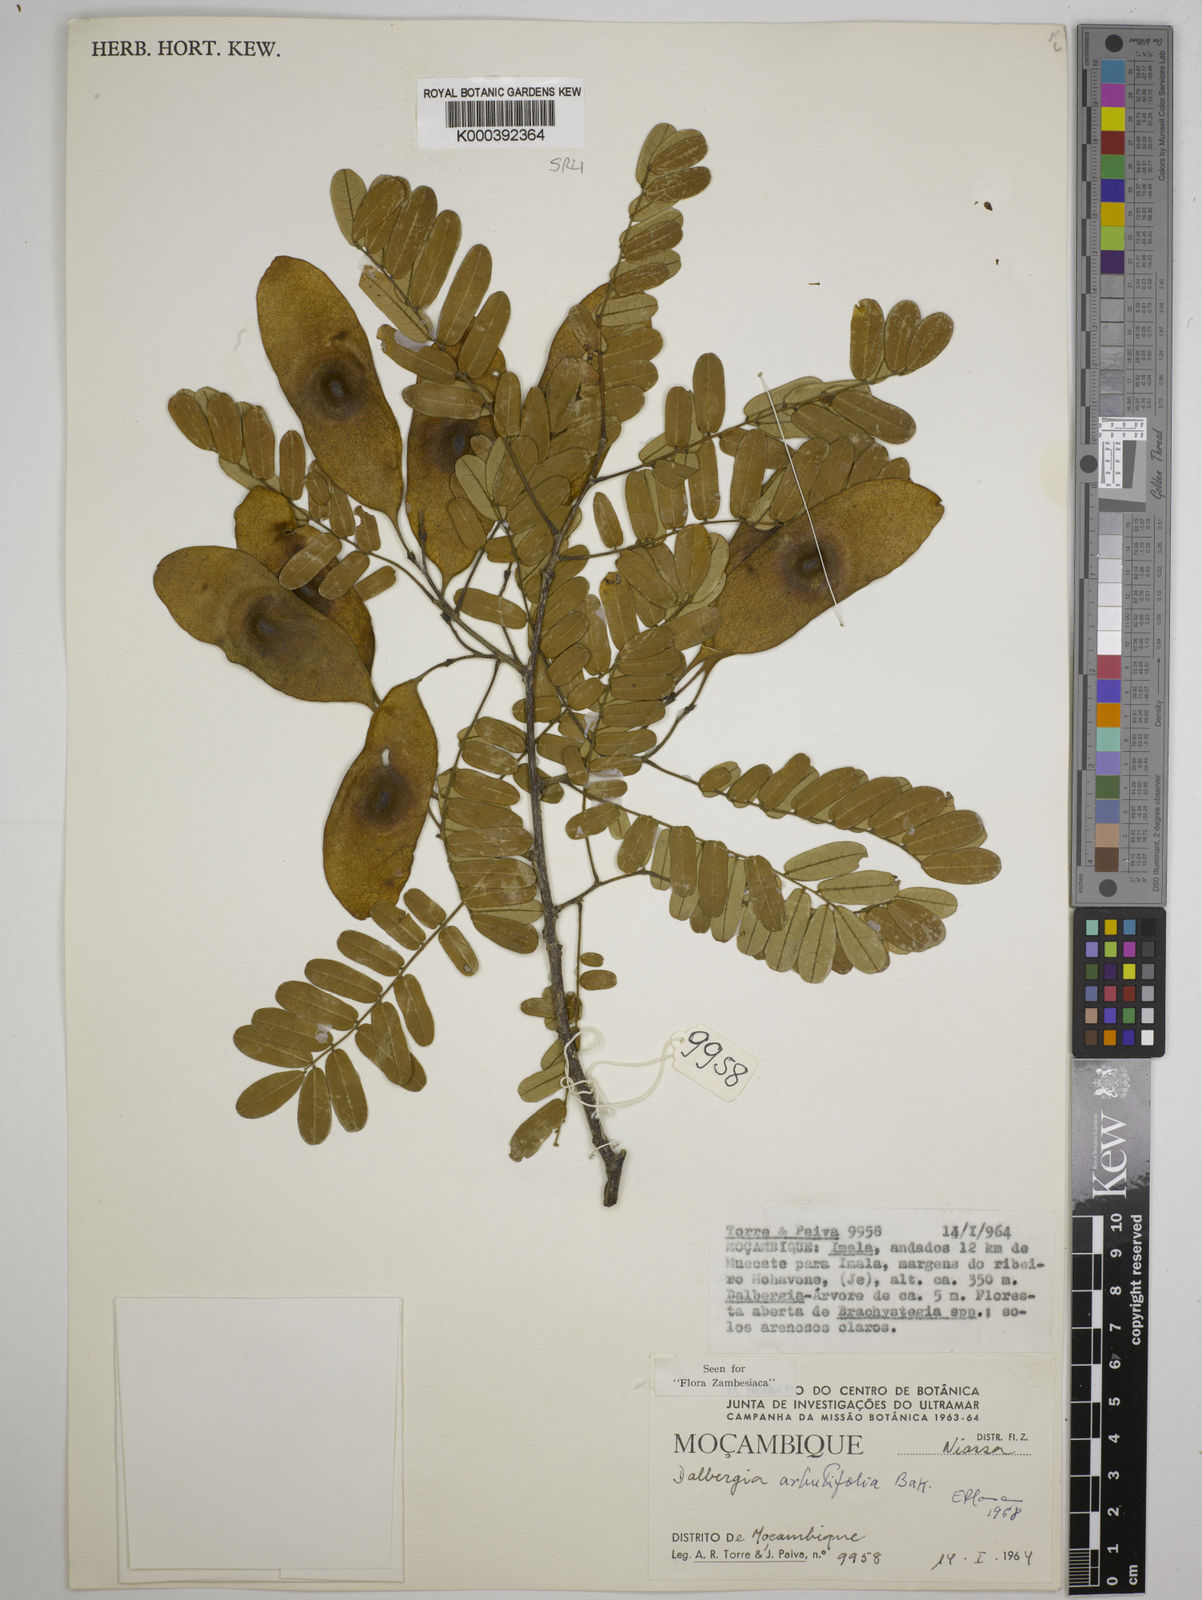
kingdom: Plantae
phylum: Tracheophyta
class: Magnoliopsida
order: Fabales
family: Fabaceae
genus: Dalbergia
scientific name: Dalbergia arbutifolia
